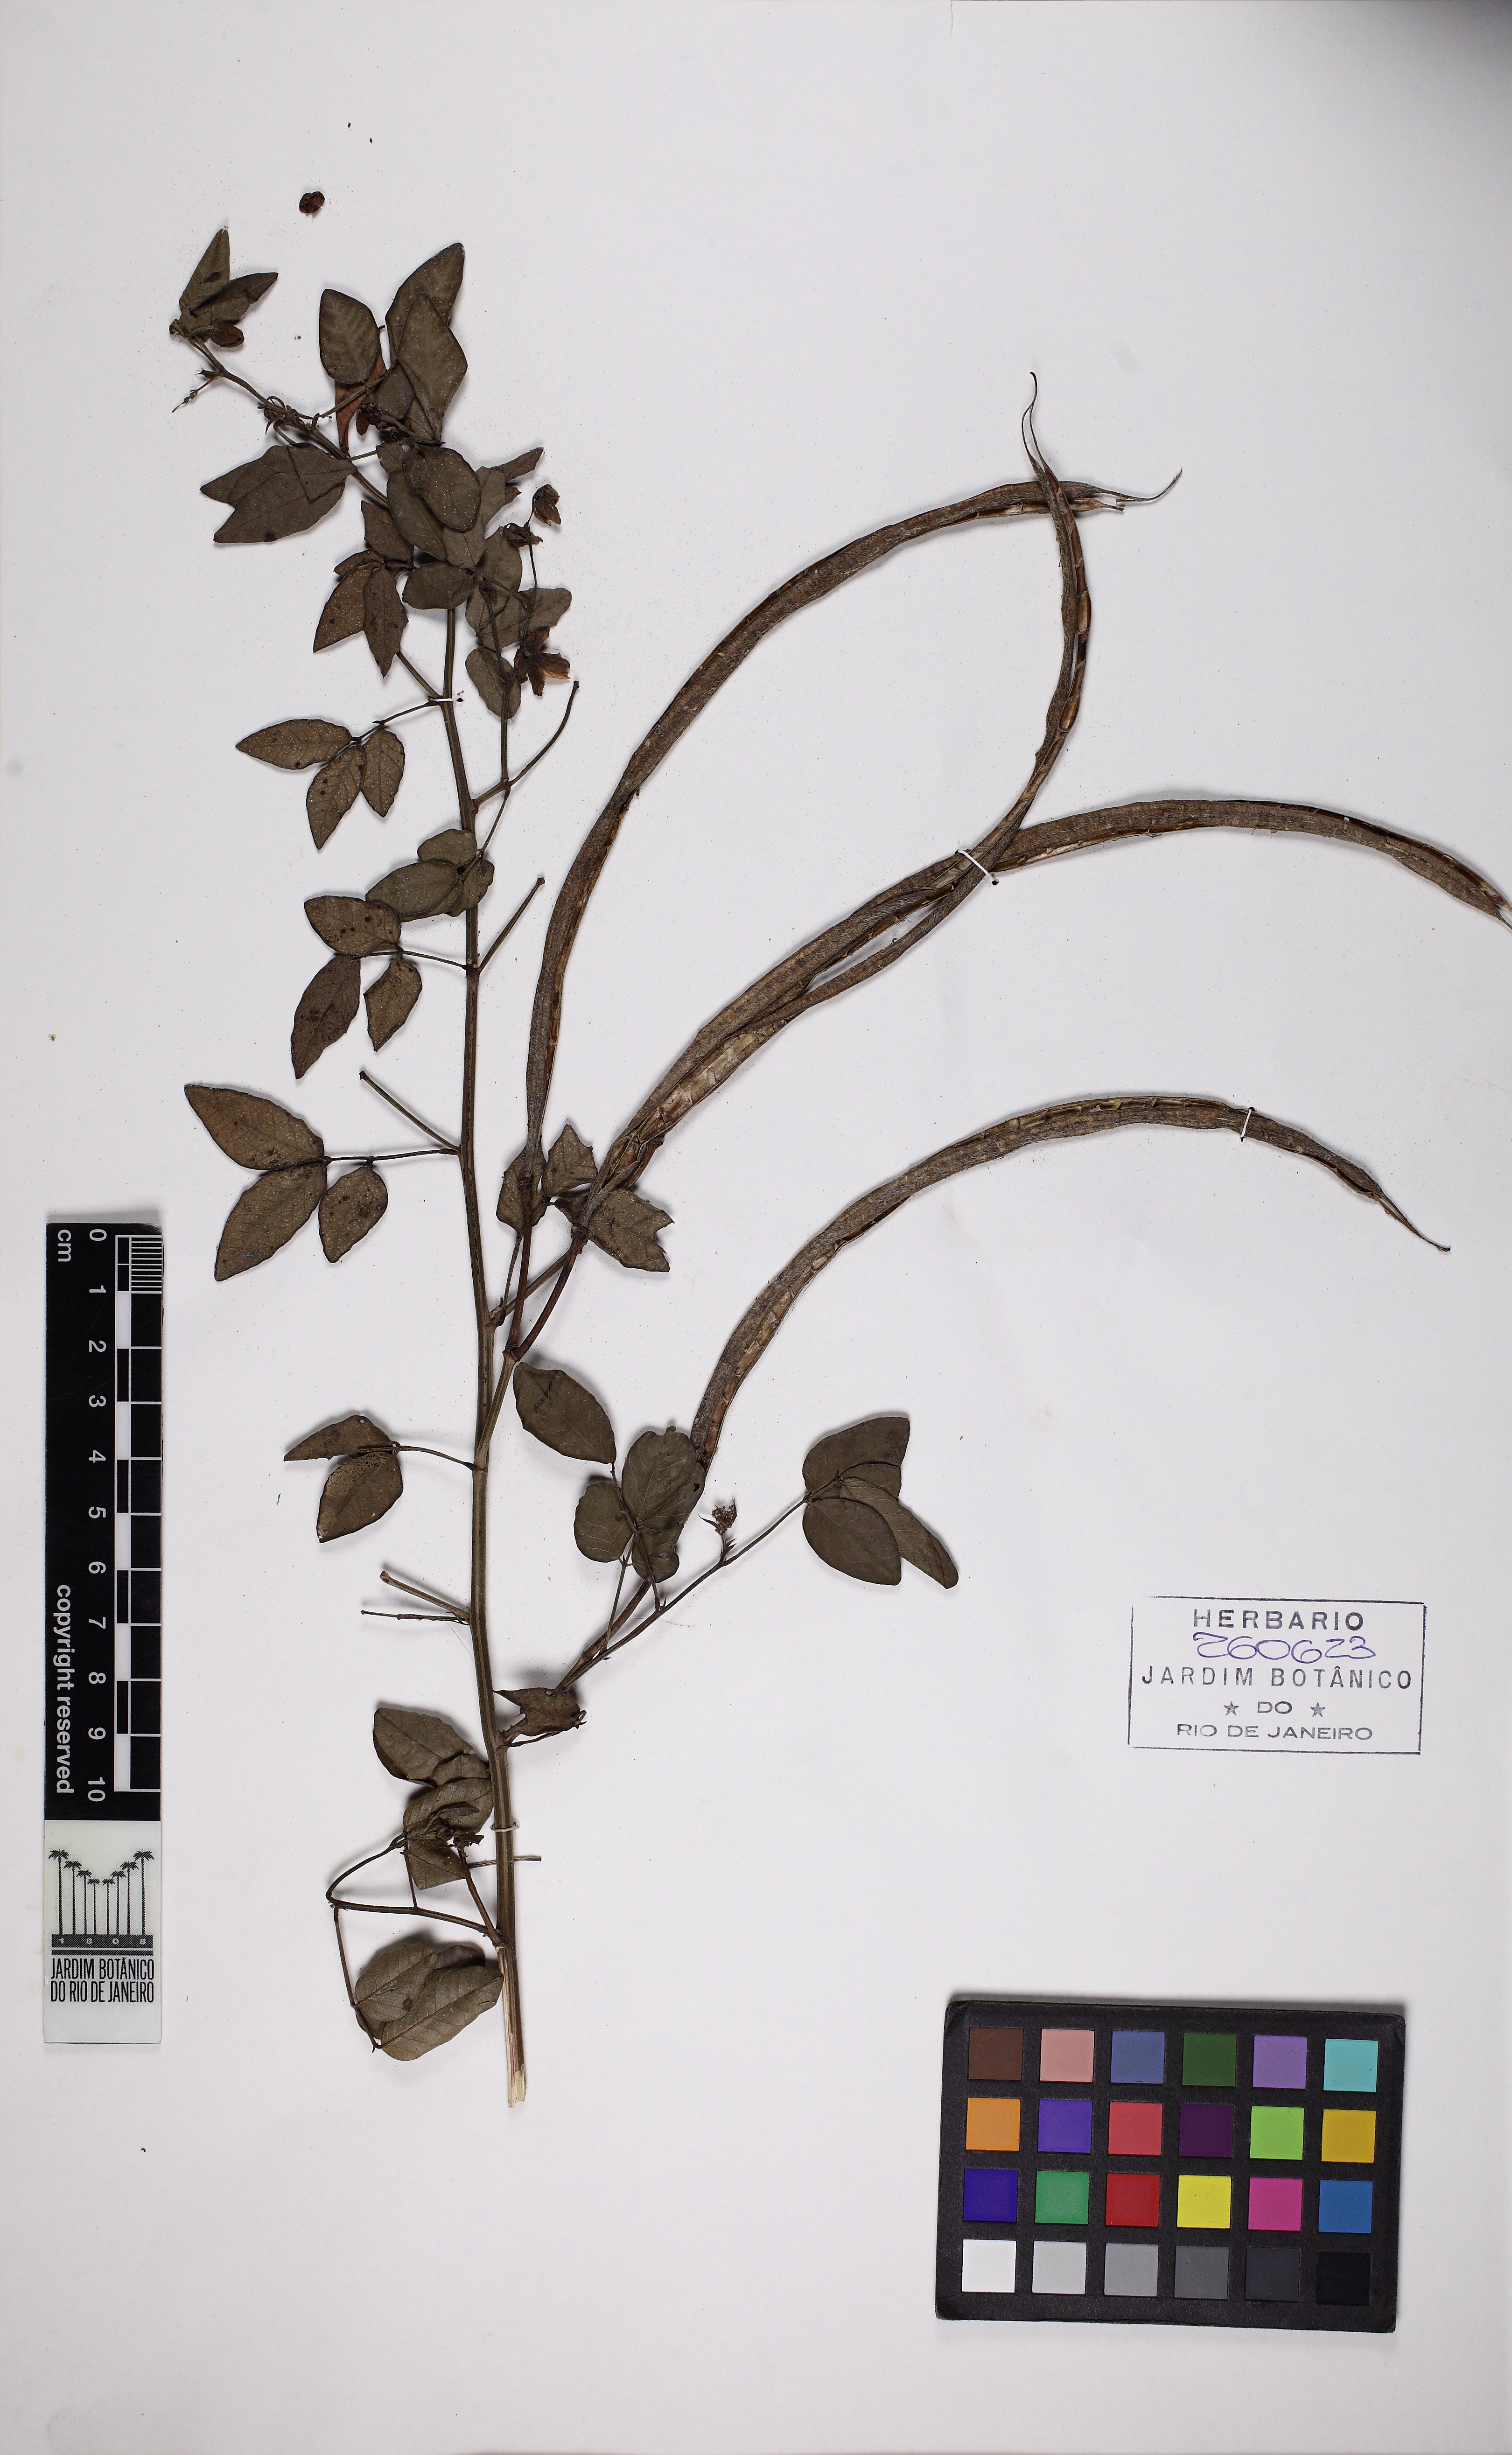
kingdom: Plantae
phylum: Tracheophyta
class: Magnoliopsida
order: Fabales
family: Fabaceae
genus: Senna
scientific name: Senna pilifera
